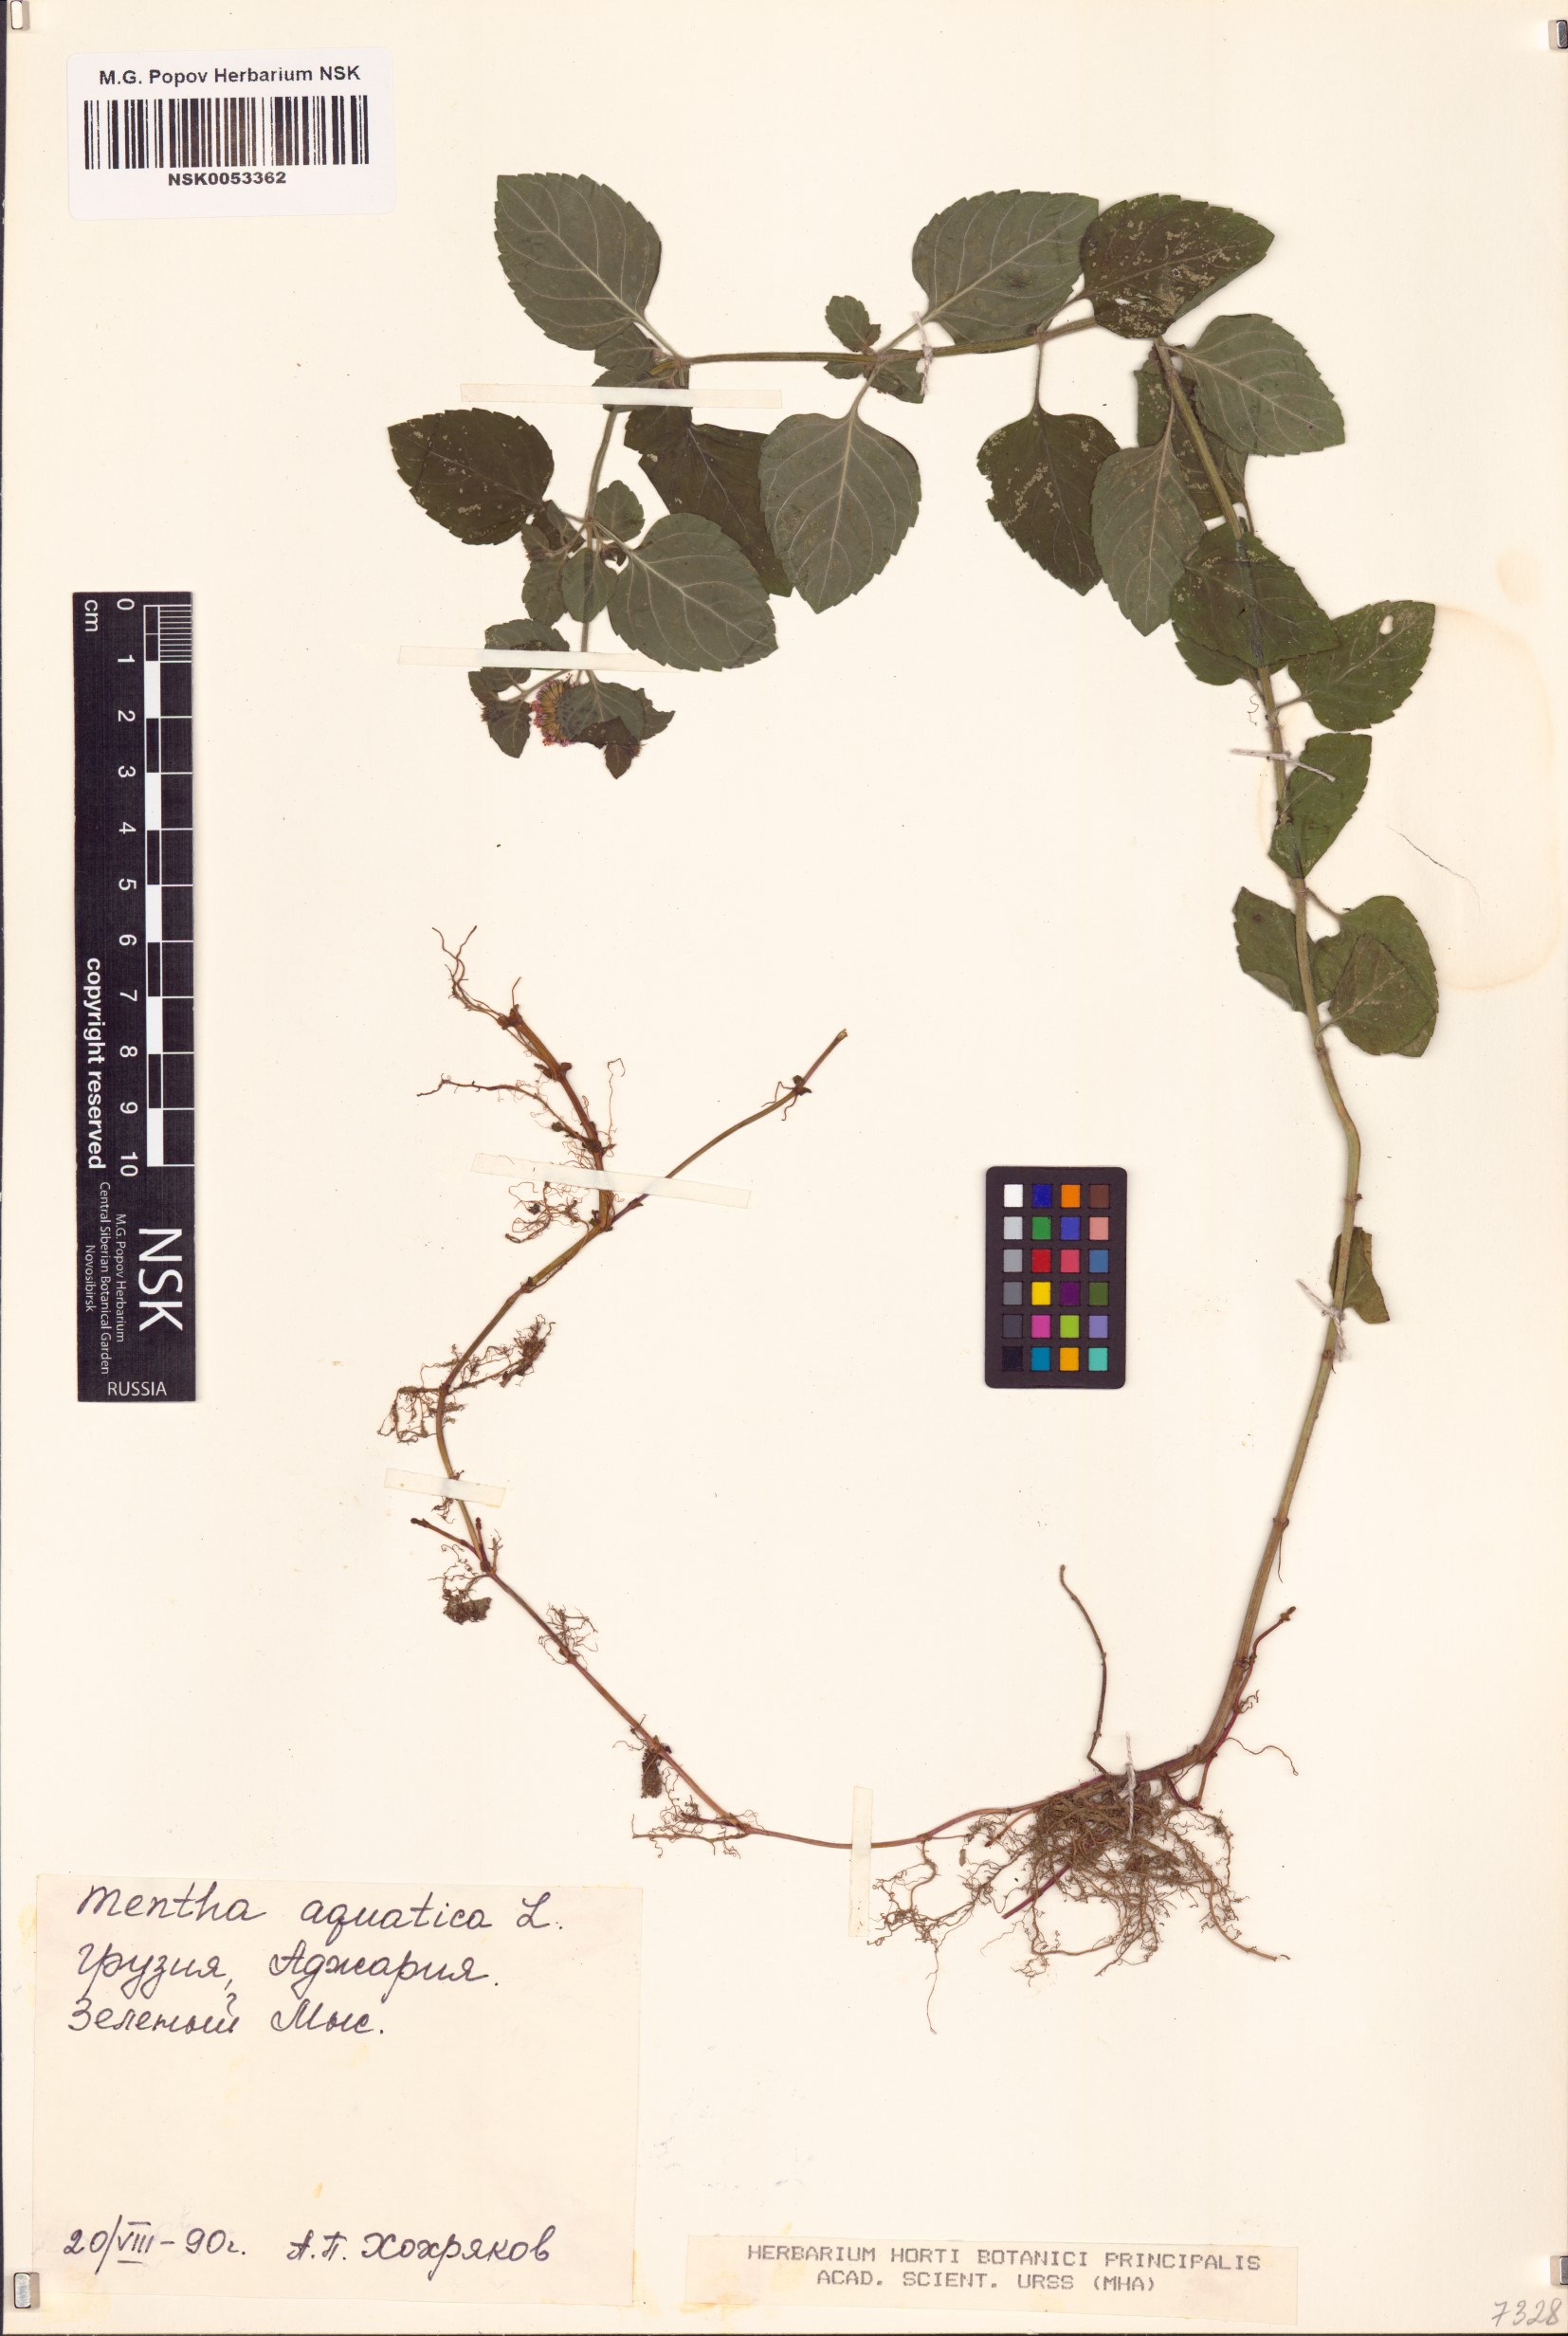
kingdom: Plantae
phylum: Tracheophyta
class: Magnoliopsida
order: Lamiales
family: Lamiaceae
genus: Mentha
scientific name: Mentha aquatica
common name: Water mint
